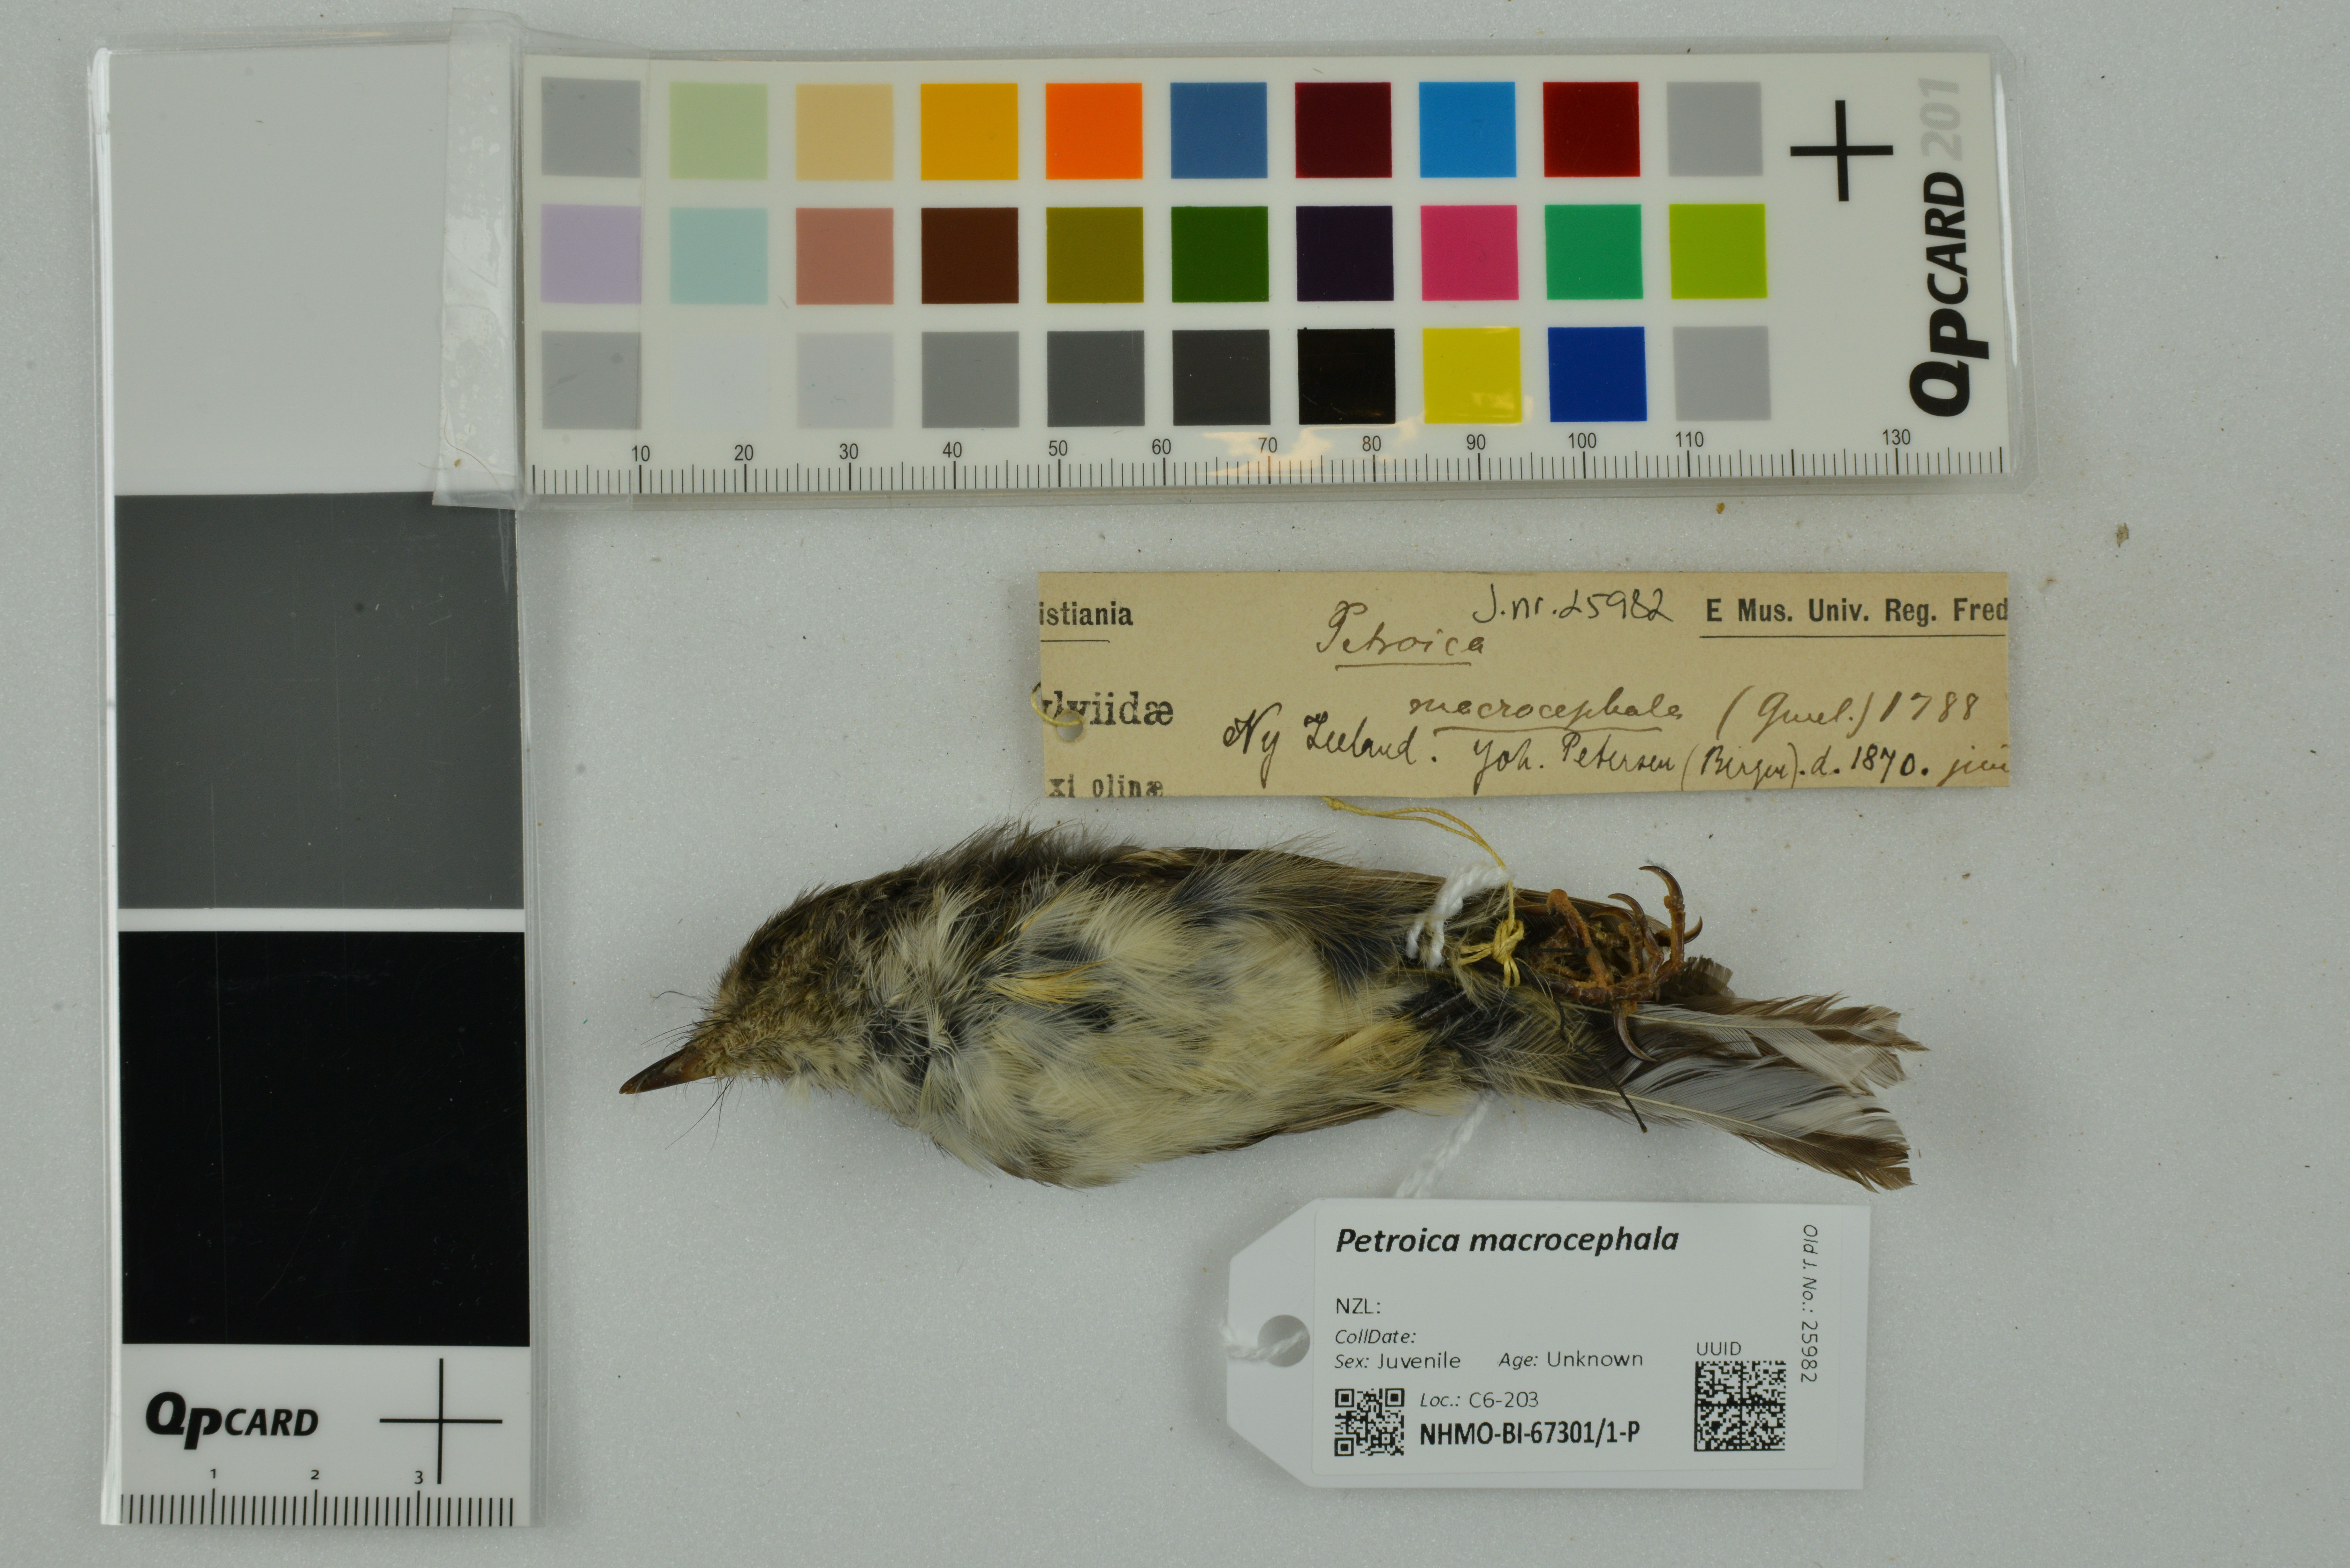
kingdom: Animalia
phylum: Chordata
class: Aves
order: Passeriformes
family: Petroicidae
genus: Petroica
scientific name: Petroica macrocephala
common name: Tomtit
